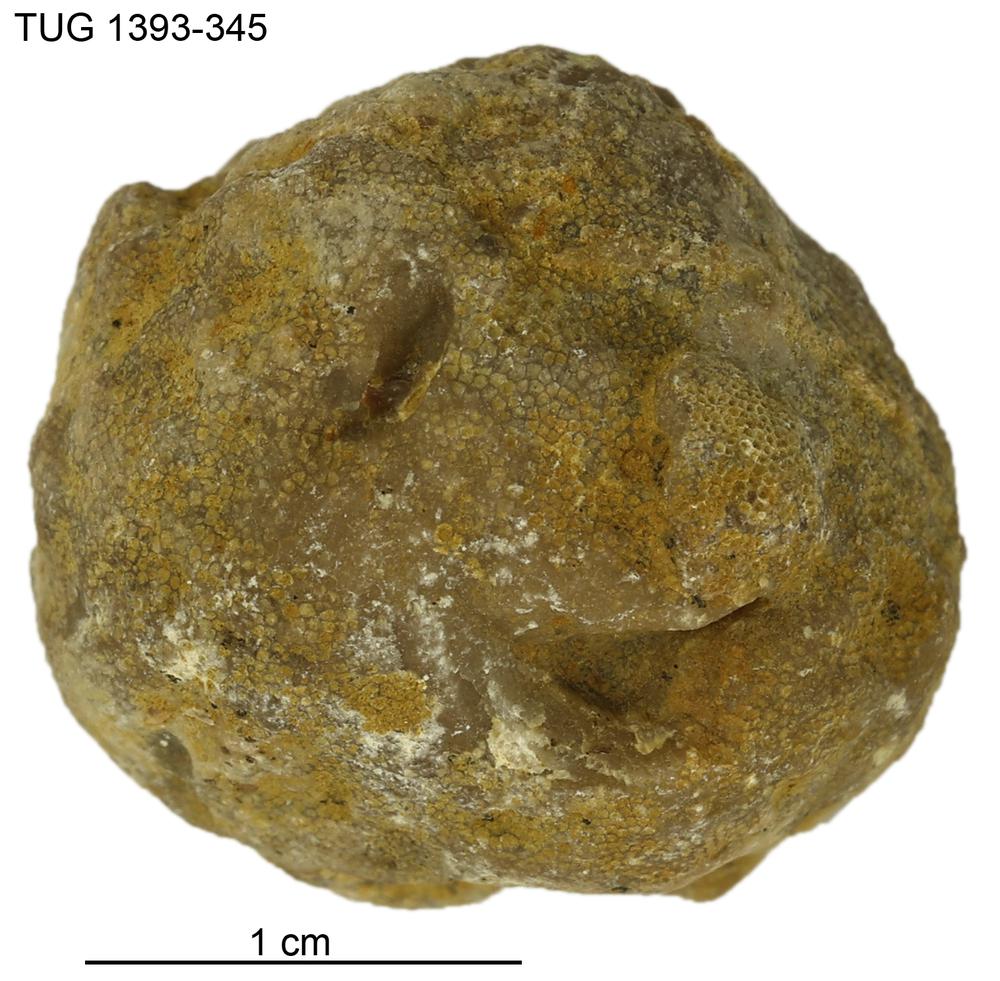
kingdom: Animalia
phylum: Bryozoa
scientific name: Bryozoa
